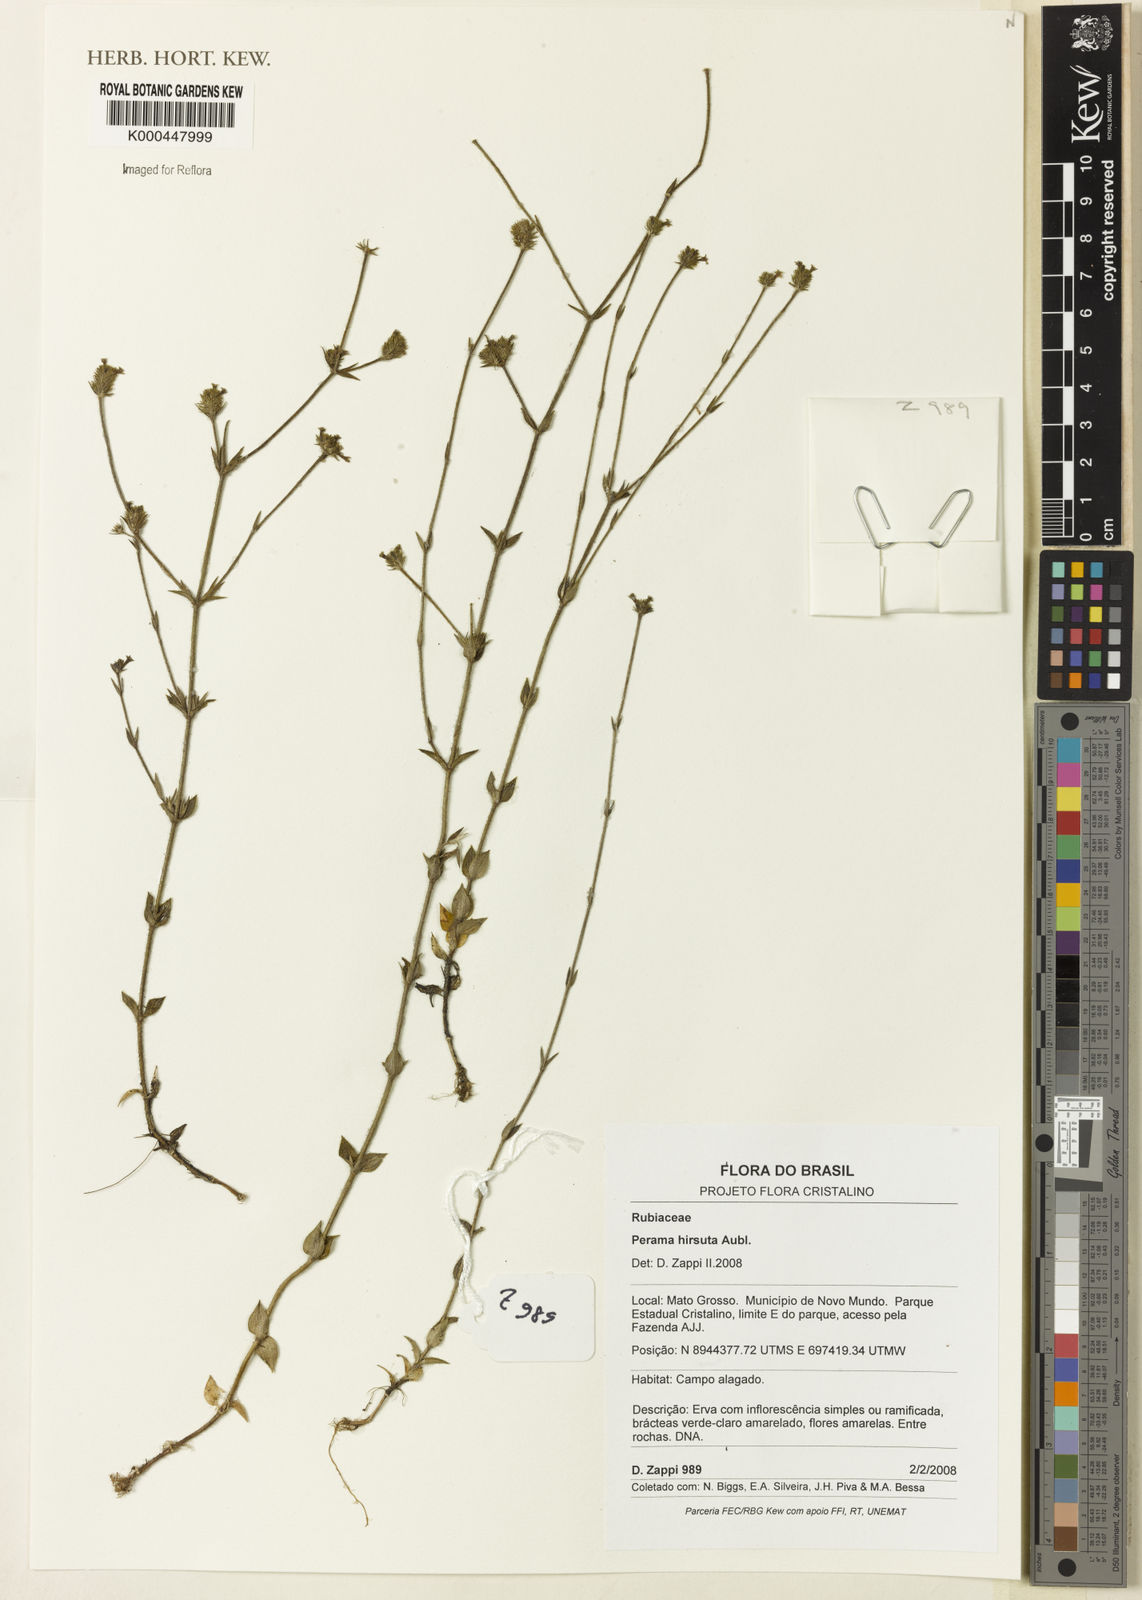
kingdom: Plantae
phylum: Tracheophyta
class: Magnoliopsida
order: Gentianales
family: Rubiaceae
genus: Perama
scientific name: Perama hirsuta
